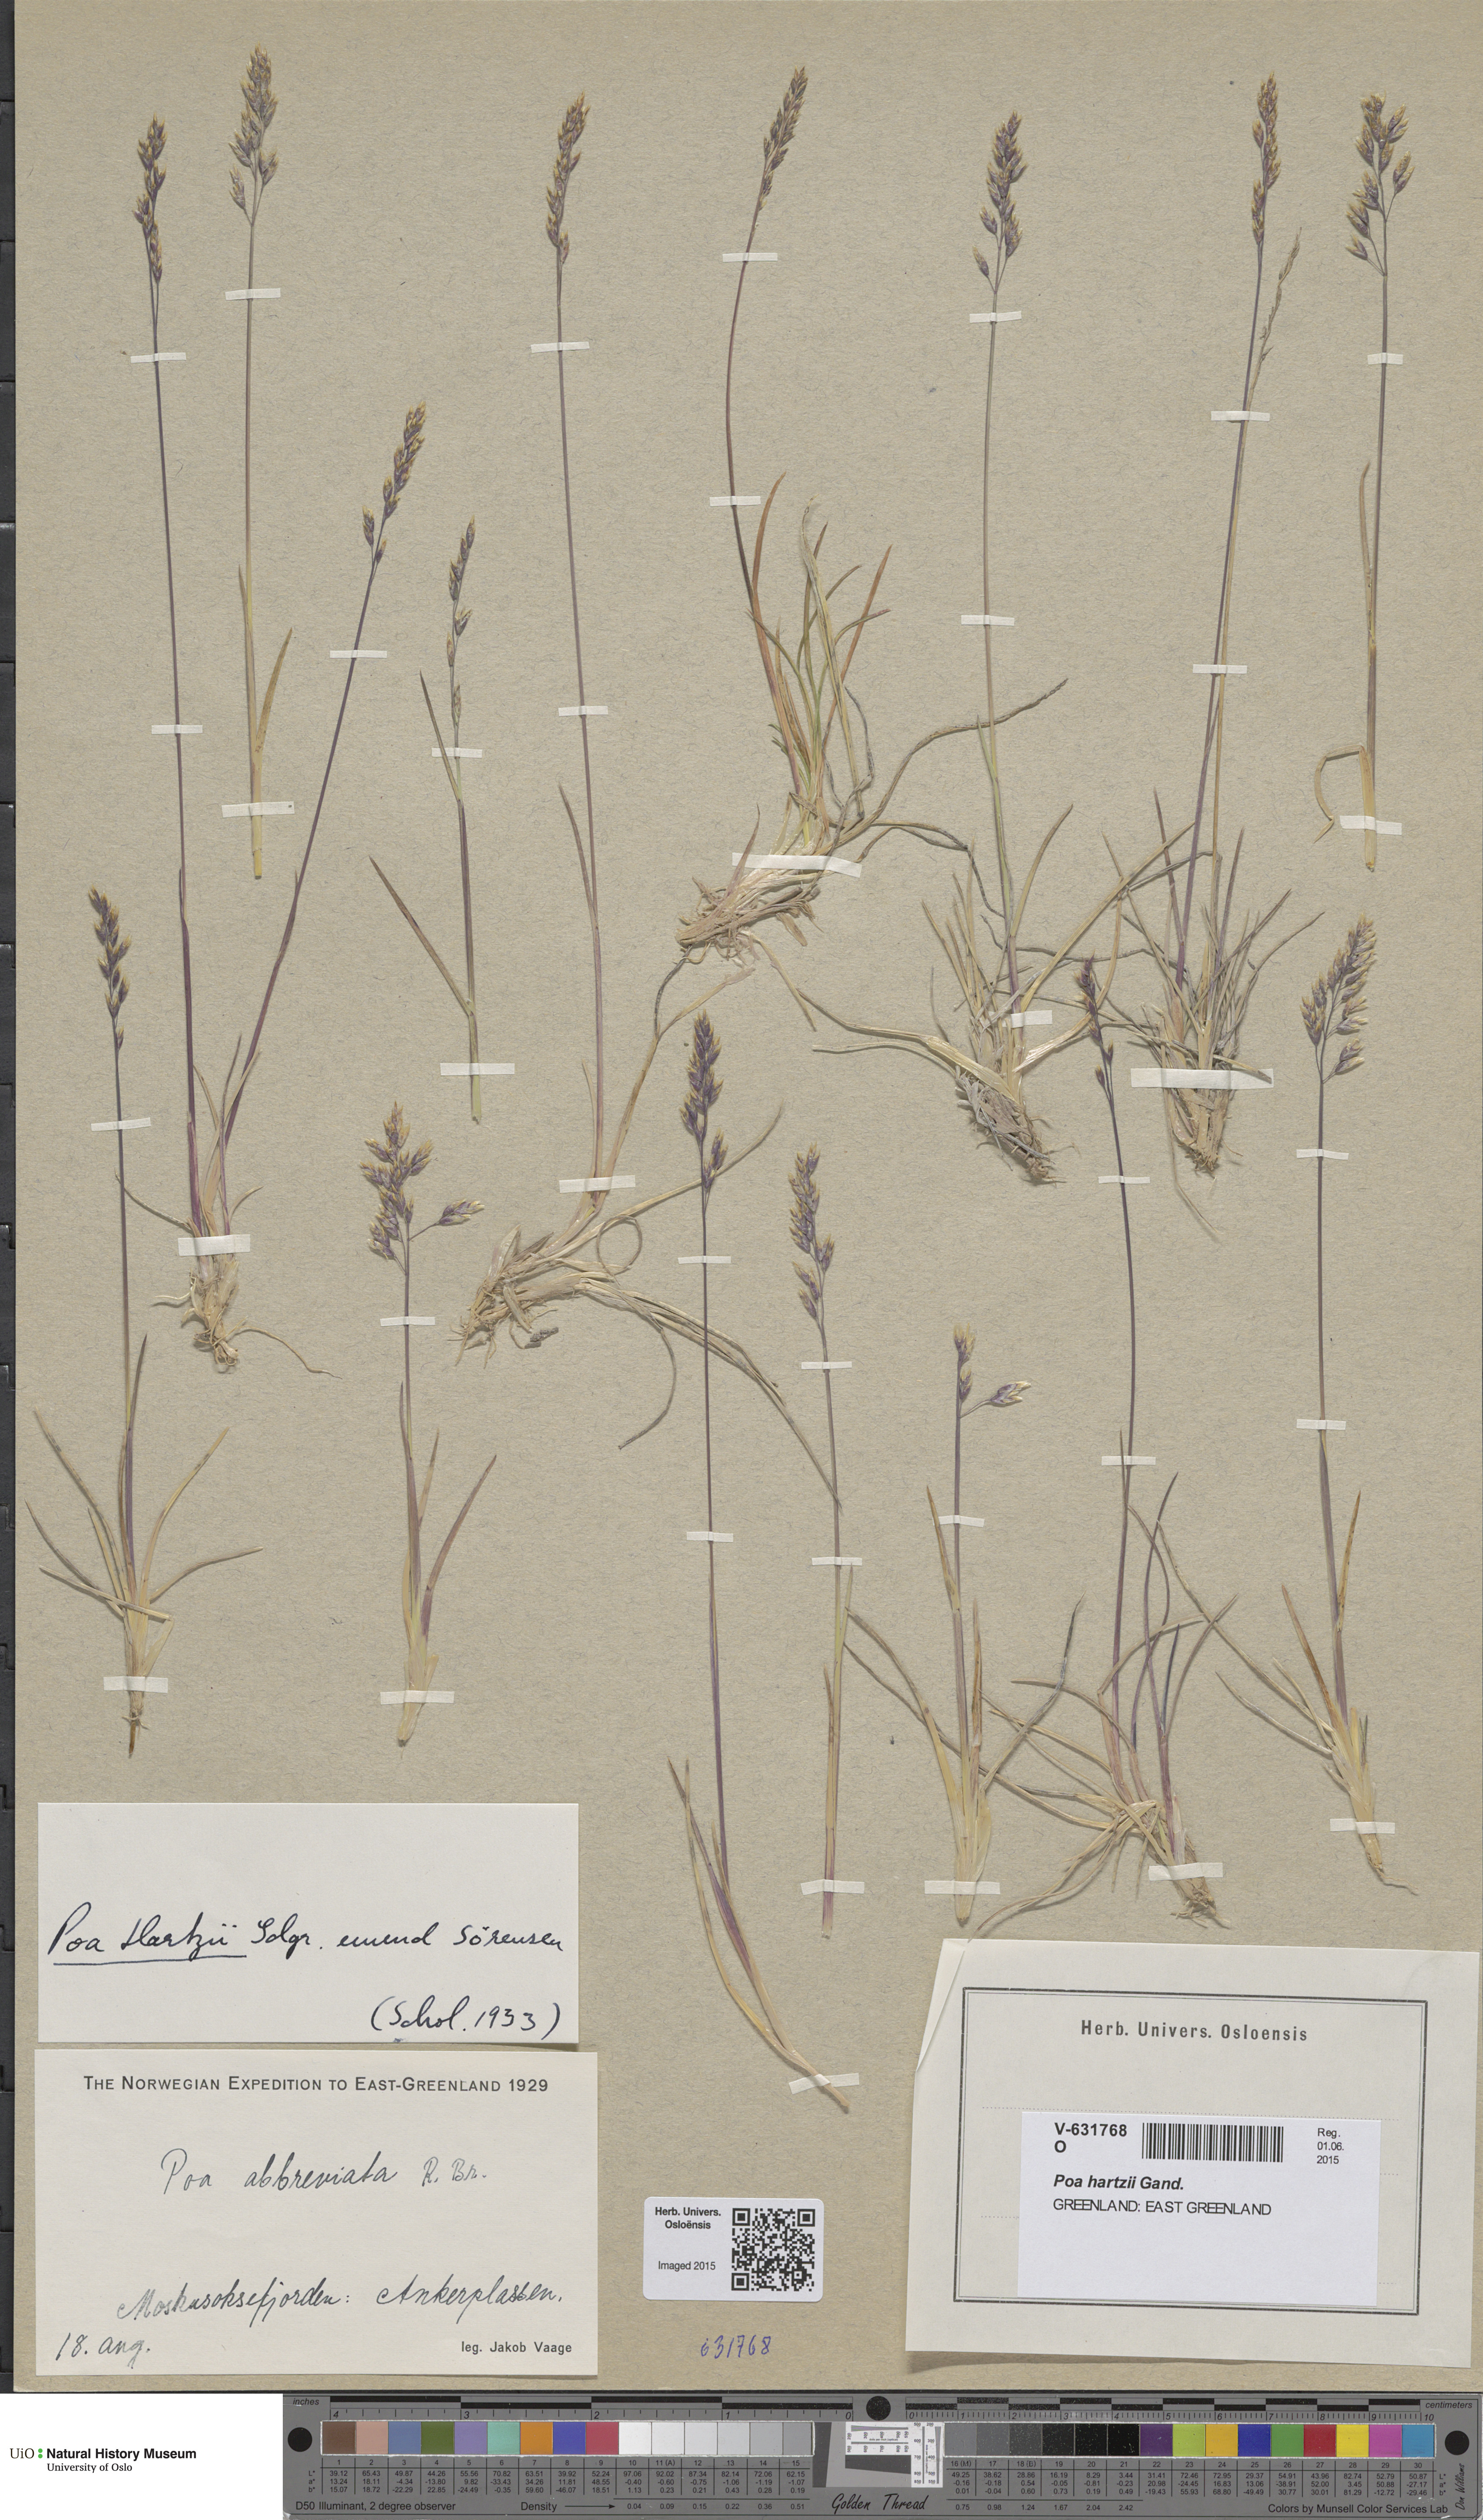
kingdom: Plantae
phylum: Tracheophyta
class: Liliopsida
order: Poales
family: Poaceae
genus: Poa
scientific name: Poa hartzii
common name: Hartz's bluegrass
